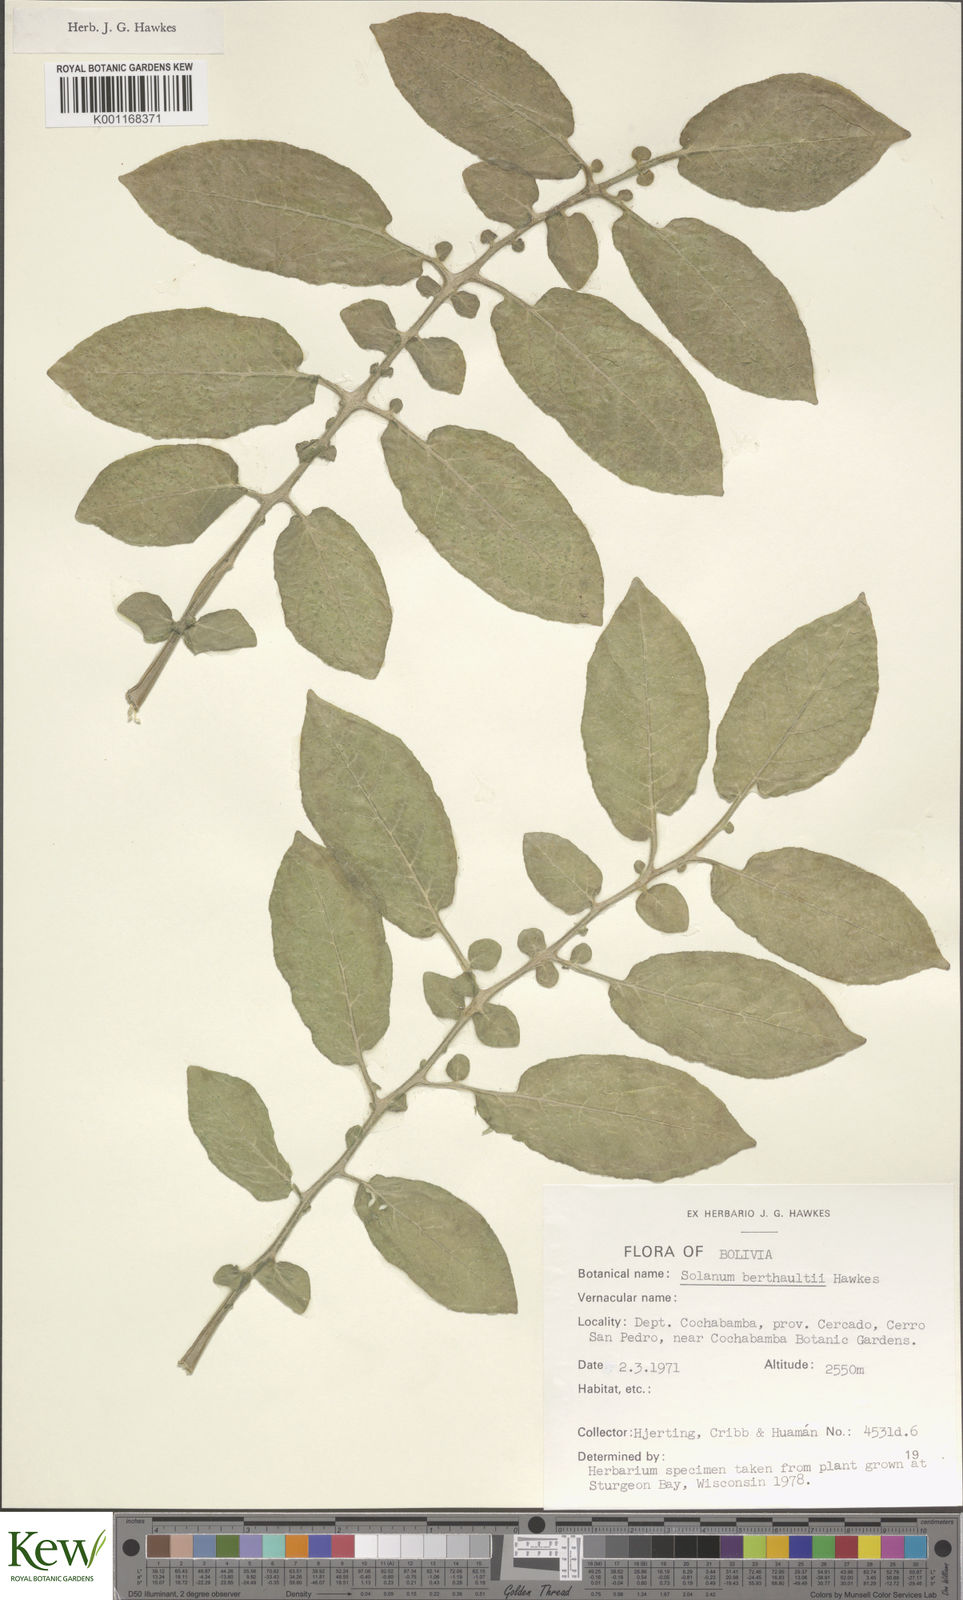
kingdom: Plantae
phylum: Tracheophyta
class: Magnoliopsida
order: Solanales
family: Solanaceae
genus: Solanum
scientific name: Solanum berthaultii
